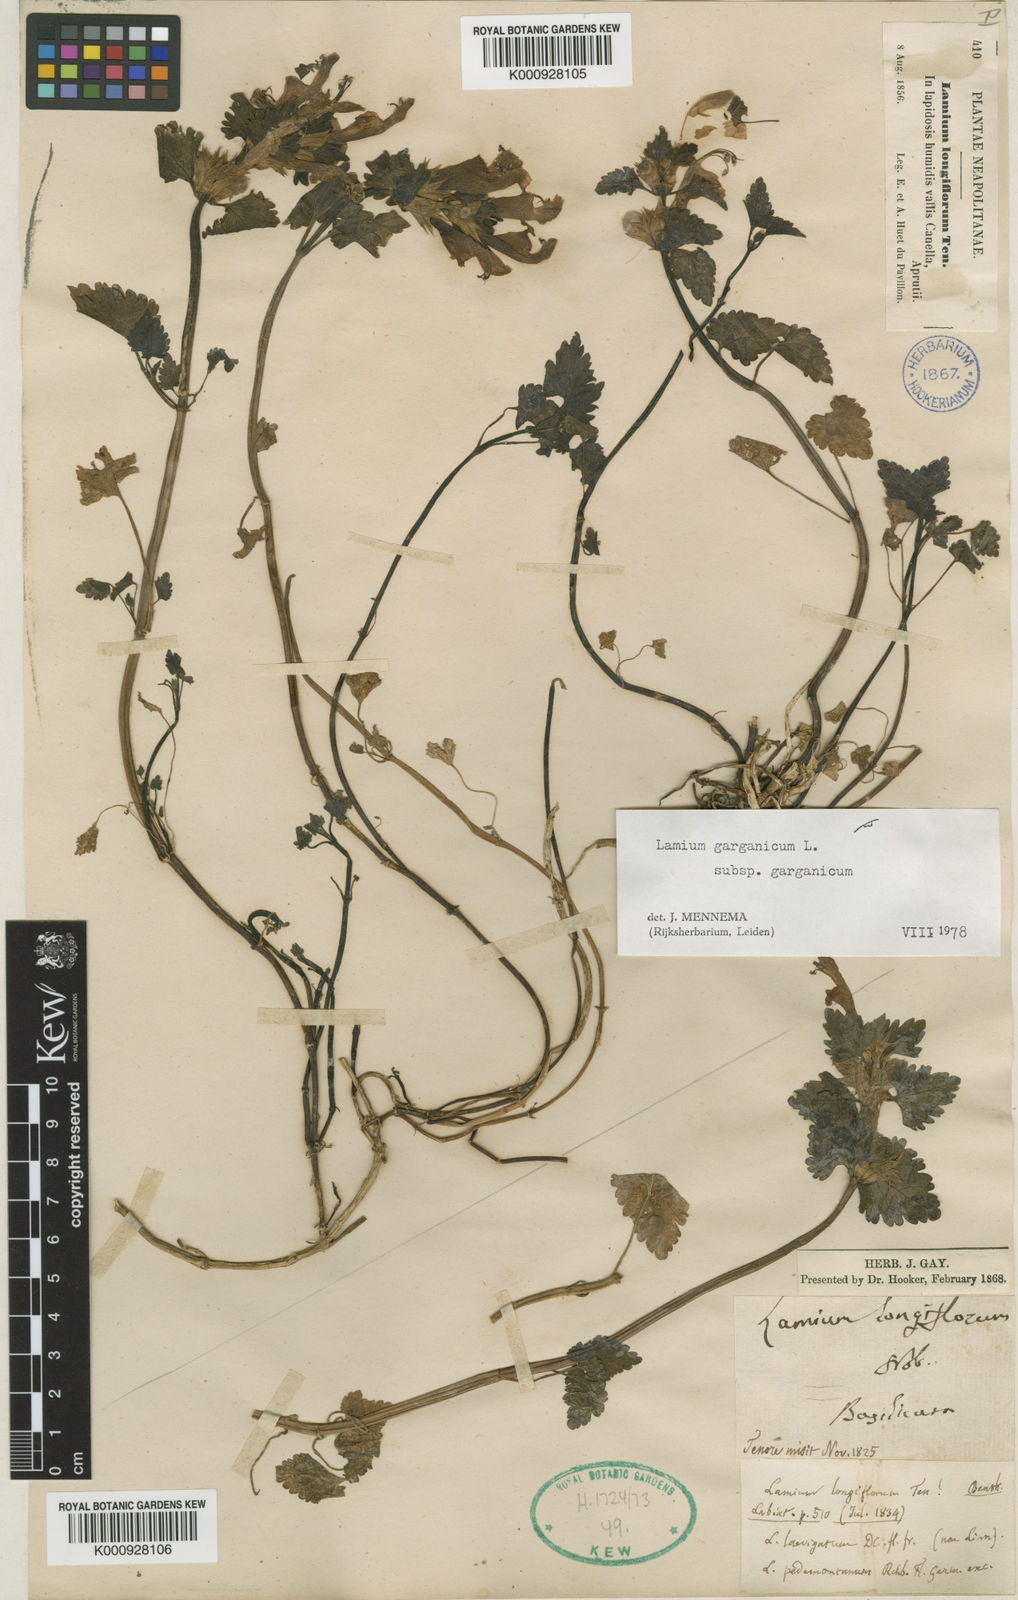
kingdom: Plantae
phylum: Tracheophyta
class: Magnoliopsida
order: Lamiales
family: Lamiaceae
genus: Lamium
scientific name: Lamium garganicum
